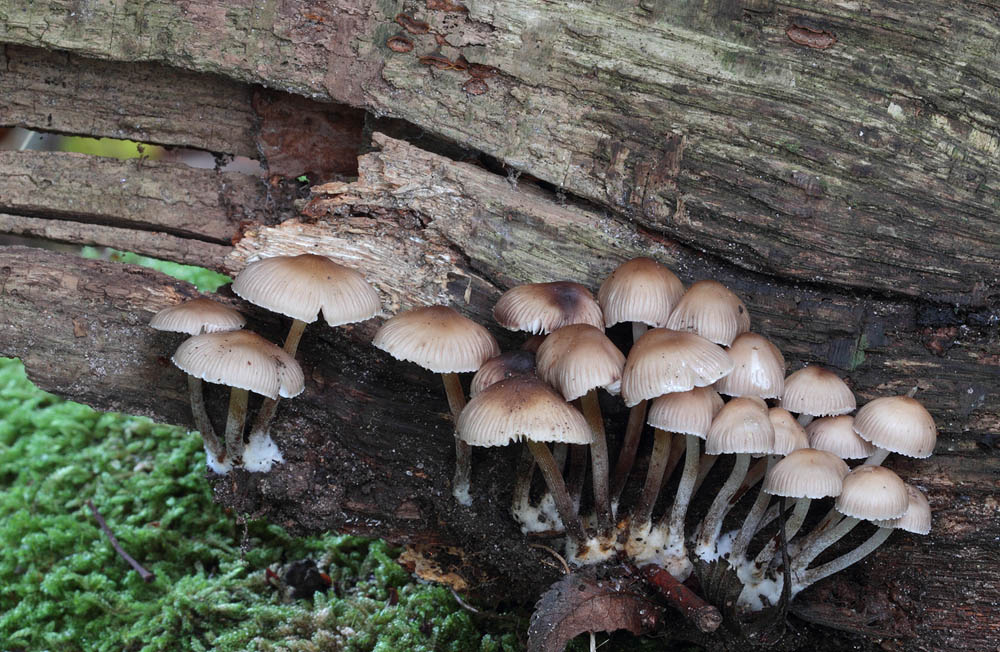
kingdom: Fungi
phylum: Basidiomycota
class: Agaricomycetes
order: Agaricales
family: Mycenaceae
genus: Mycena
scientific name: Mycena inclinata
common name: nikkende huesvamp
